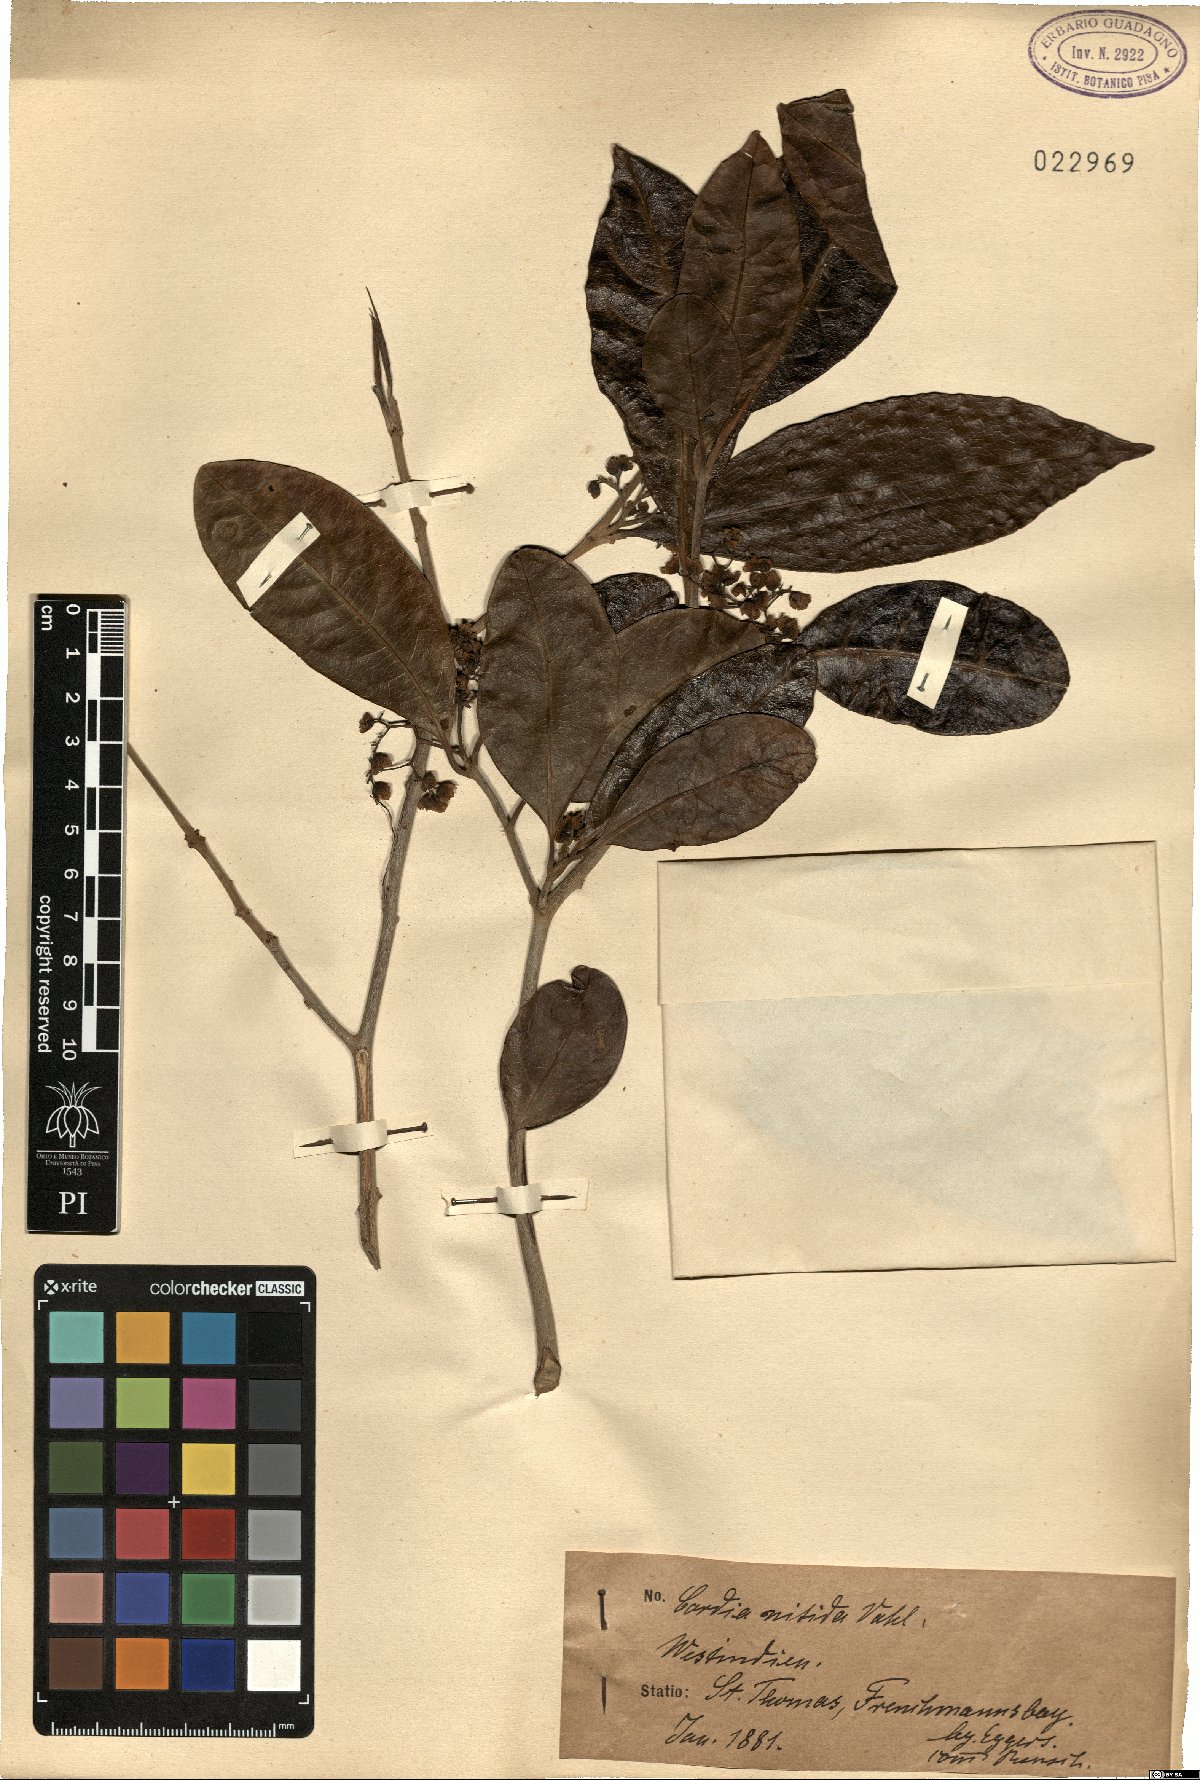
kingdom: Plantae
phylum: Tracheophyta
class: Magnoliopsida
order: Boraginales
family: Cordiaceae
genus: Cordia
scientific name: Cordia nitida
